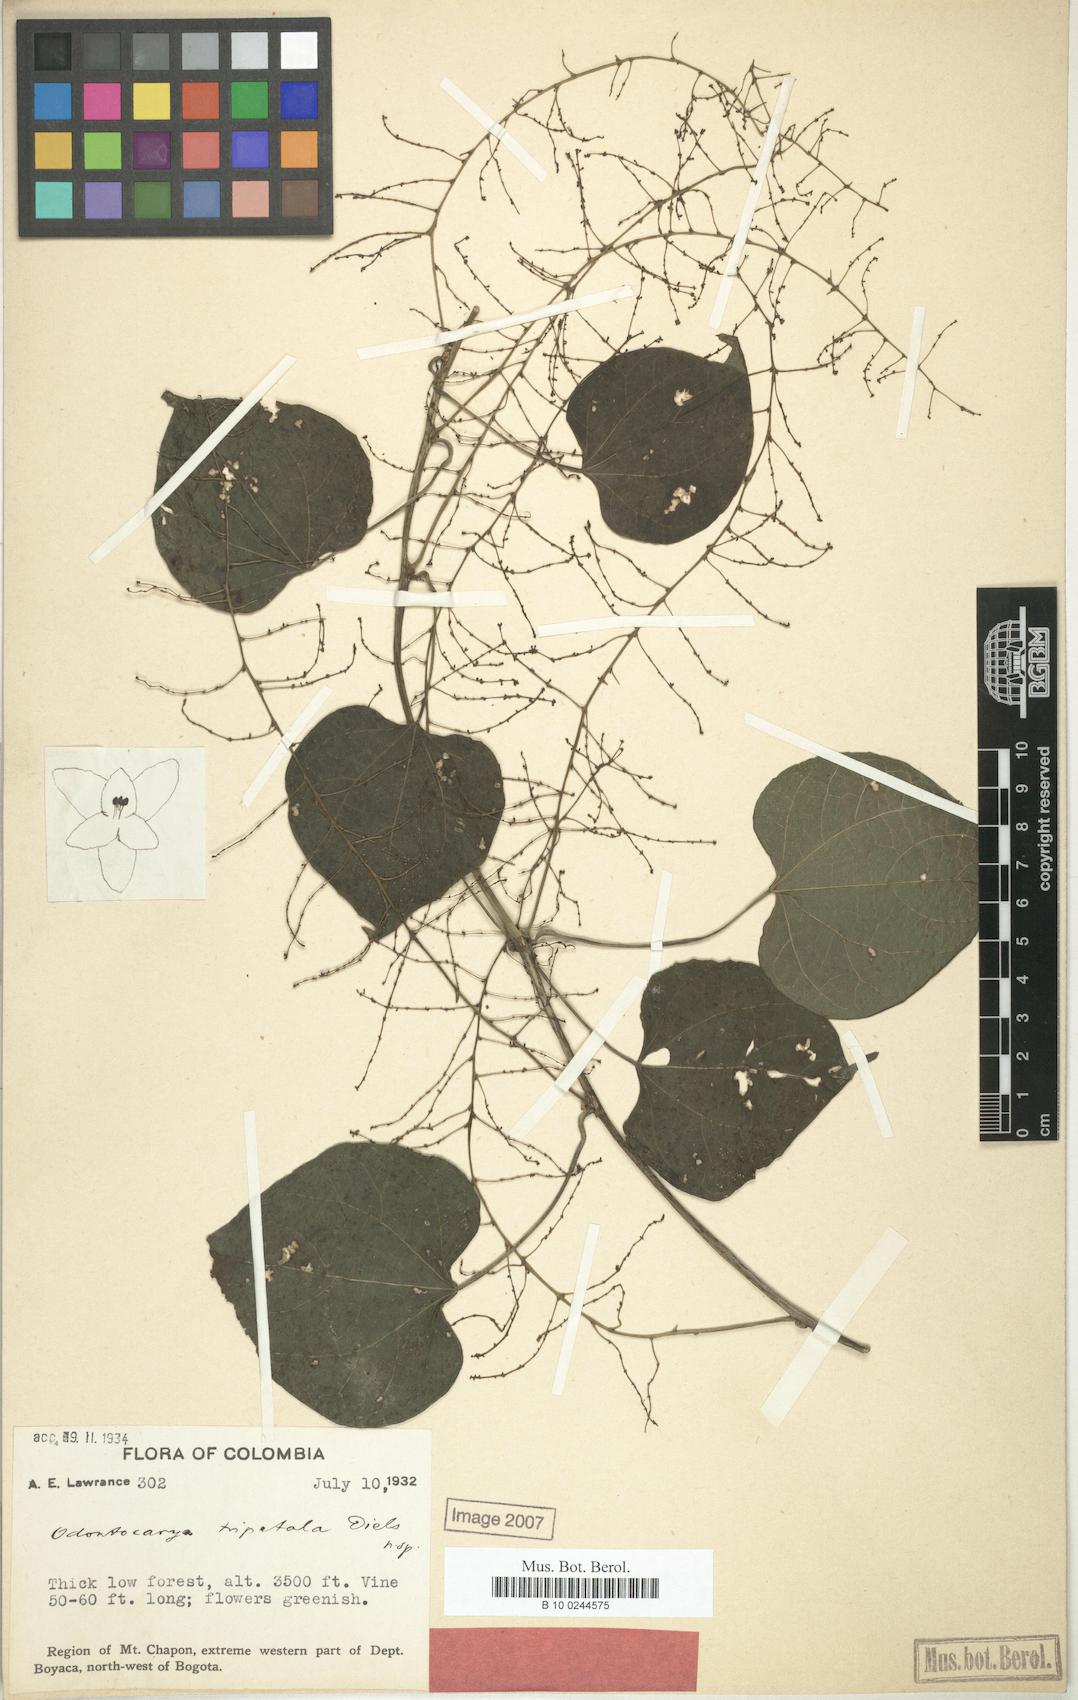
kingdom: Plantae
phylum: Tracheophyta
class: Magnoliopsida
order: Ranunculales
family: Menispermaceae
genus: Odontocarya
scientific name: Odontocarya tripetala
